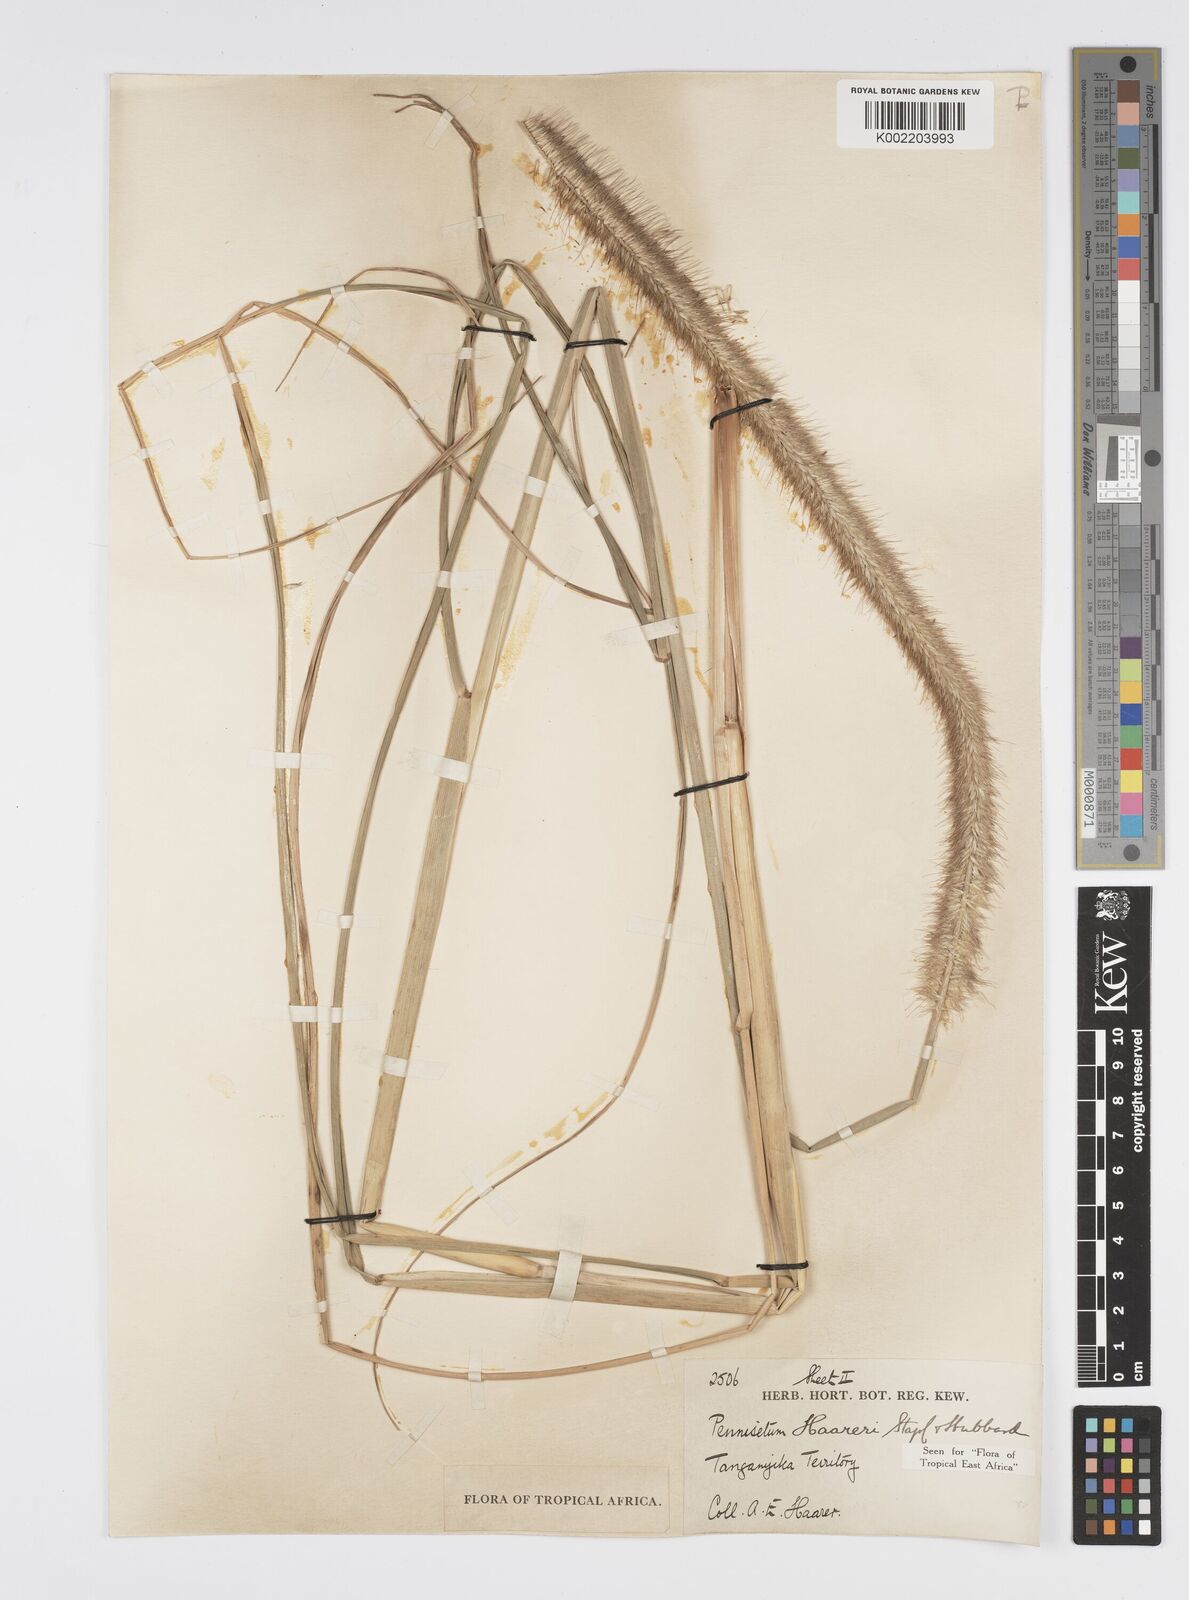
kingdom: Plantae
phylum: Tracheophyta
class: Liliopsida
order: Poales
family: Poaceae
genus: Cenchrus
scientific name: Cenchrus caudatus
